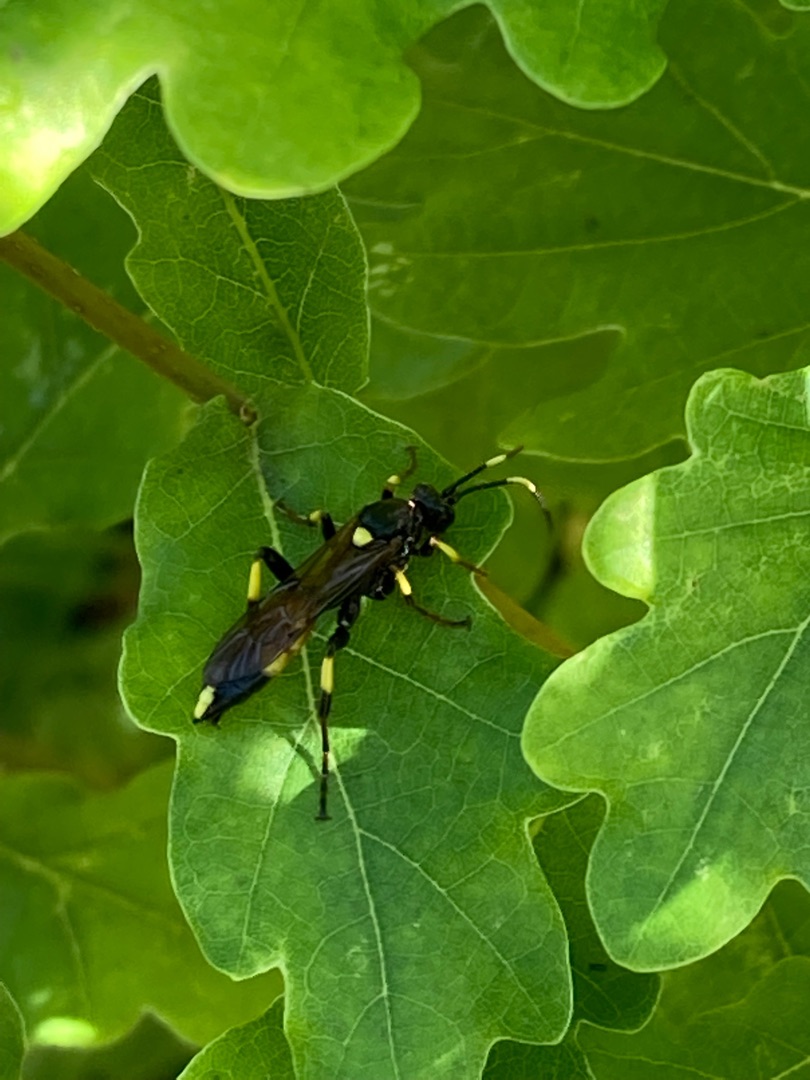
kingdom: Animalia
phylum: Arthropoda
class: Insecta
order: Hymenoptera
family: Ichneumonidae
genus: Ichneumon
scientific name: Ichneumon stramentor
